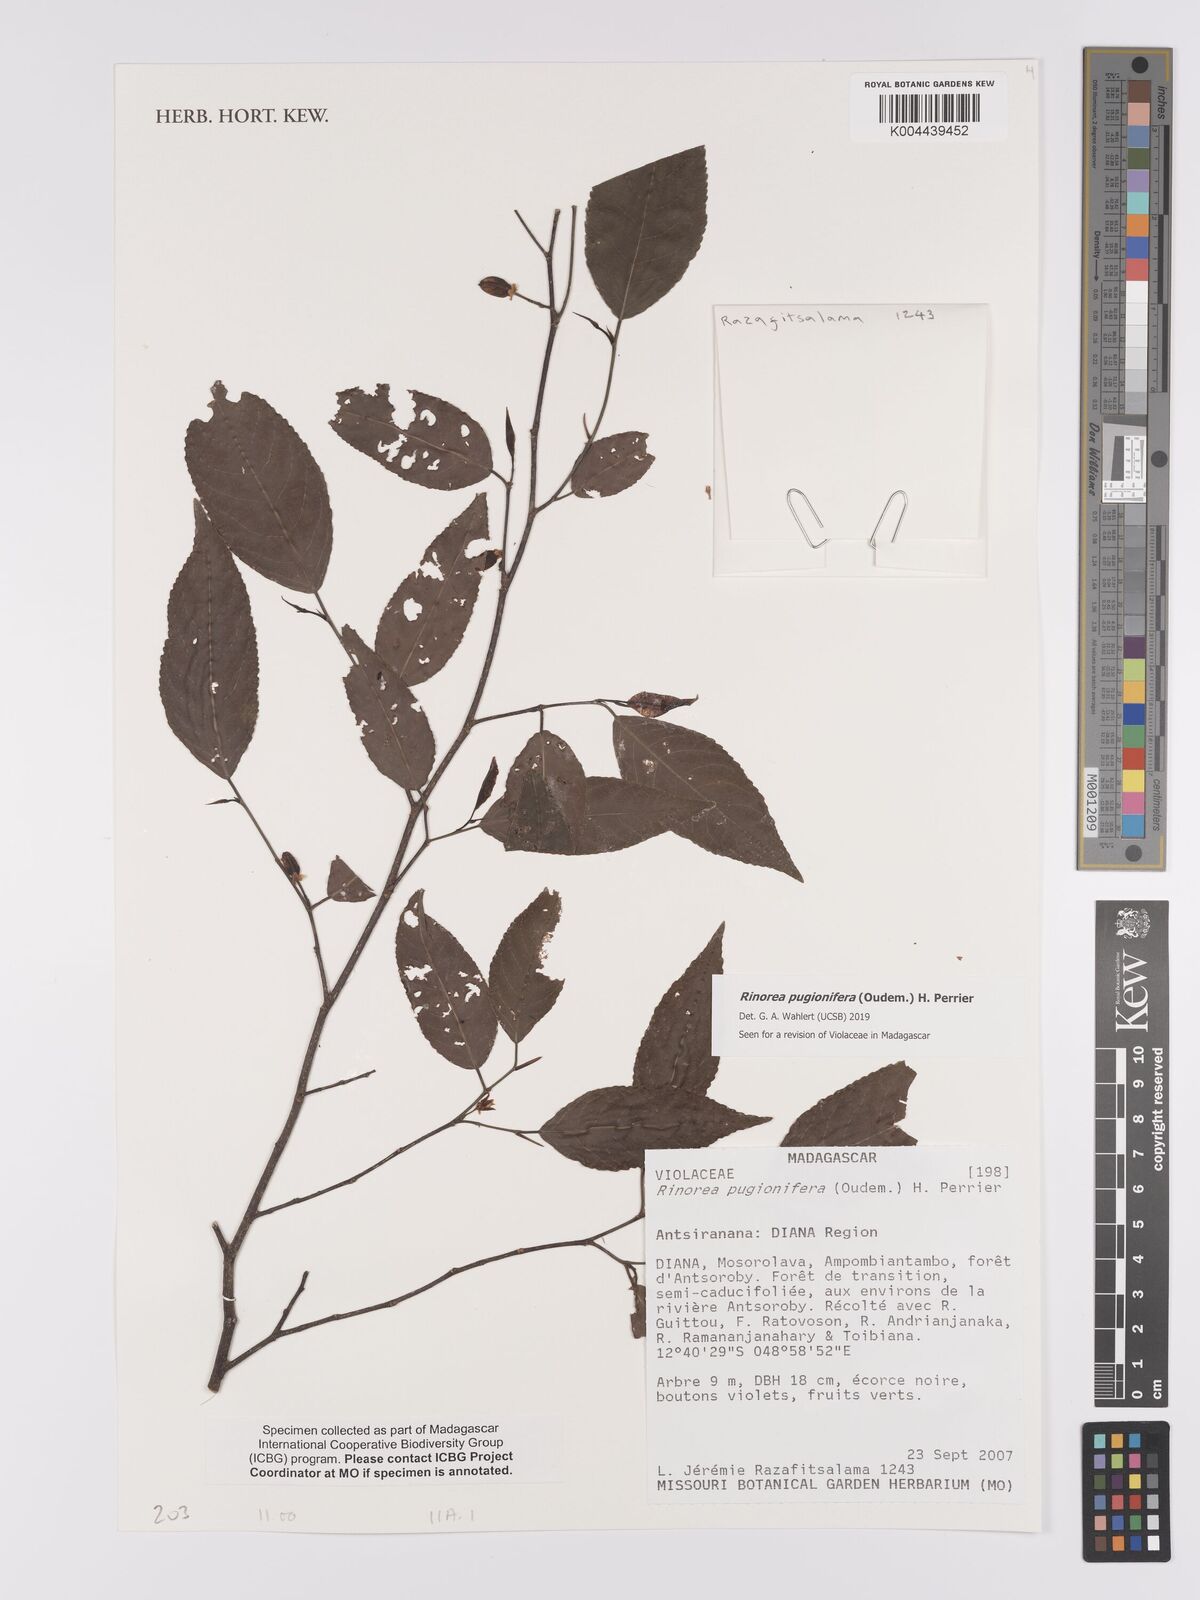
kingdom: Plantae
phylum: Tracheophyta
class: Magnoliopsida
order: Malpighiales
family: Violaceae
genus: Rinorea
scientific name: Rinorea pugionifera
